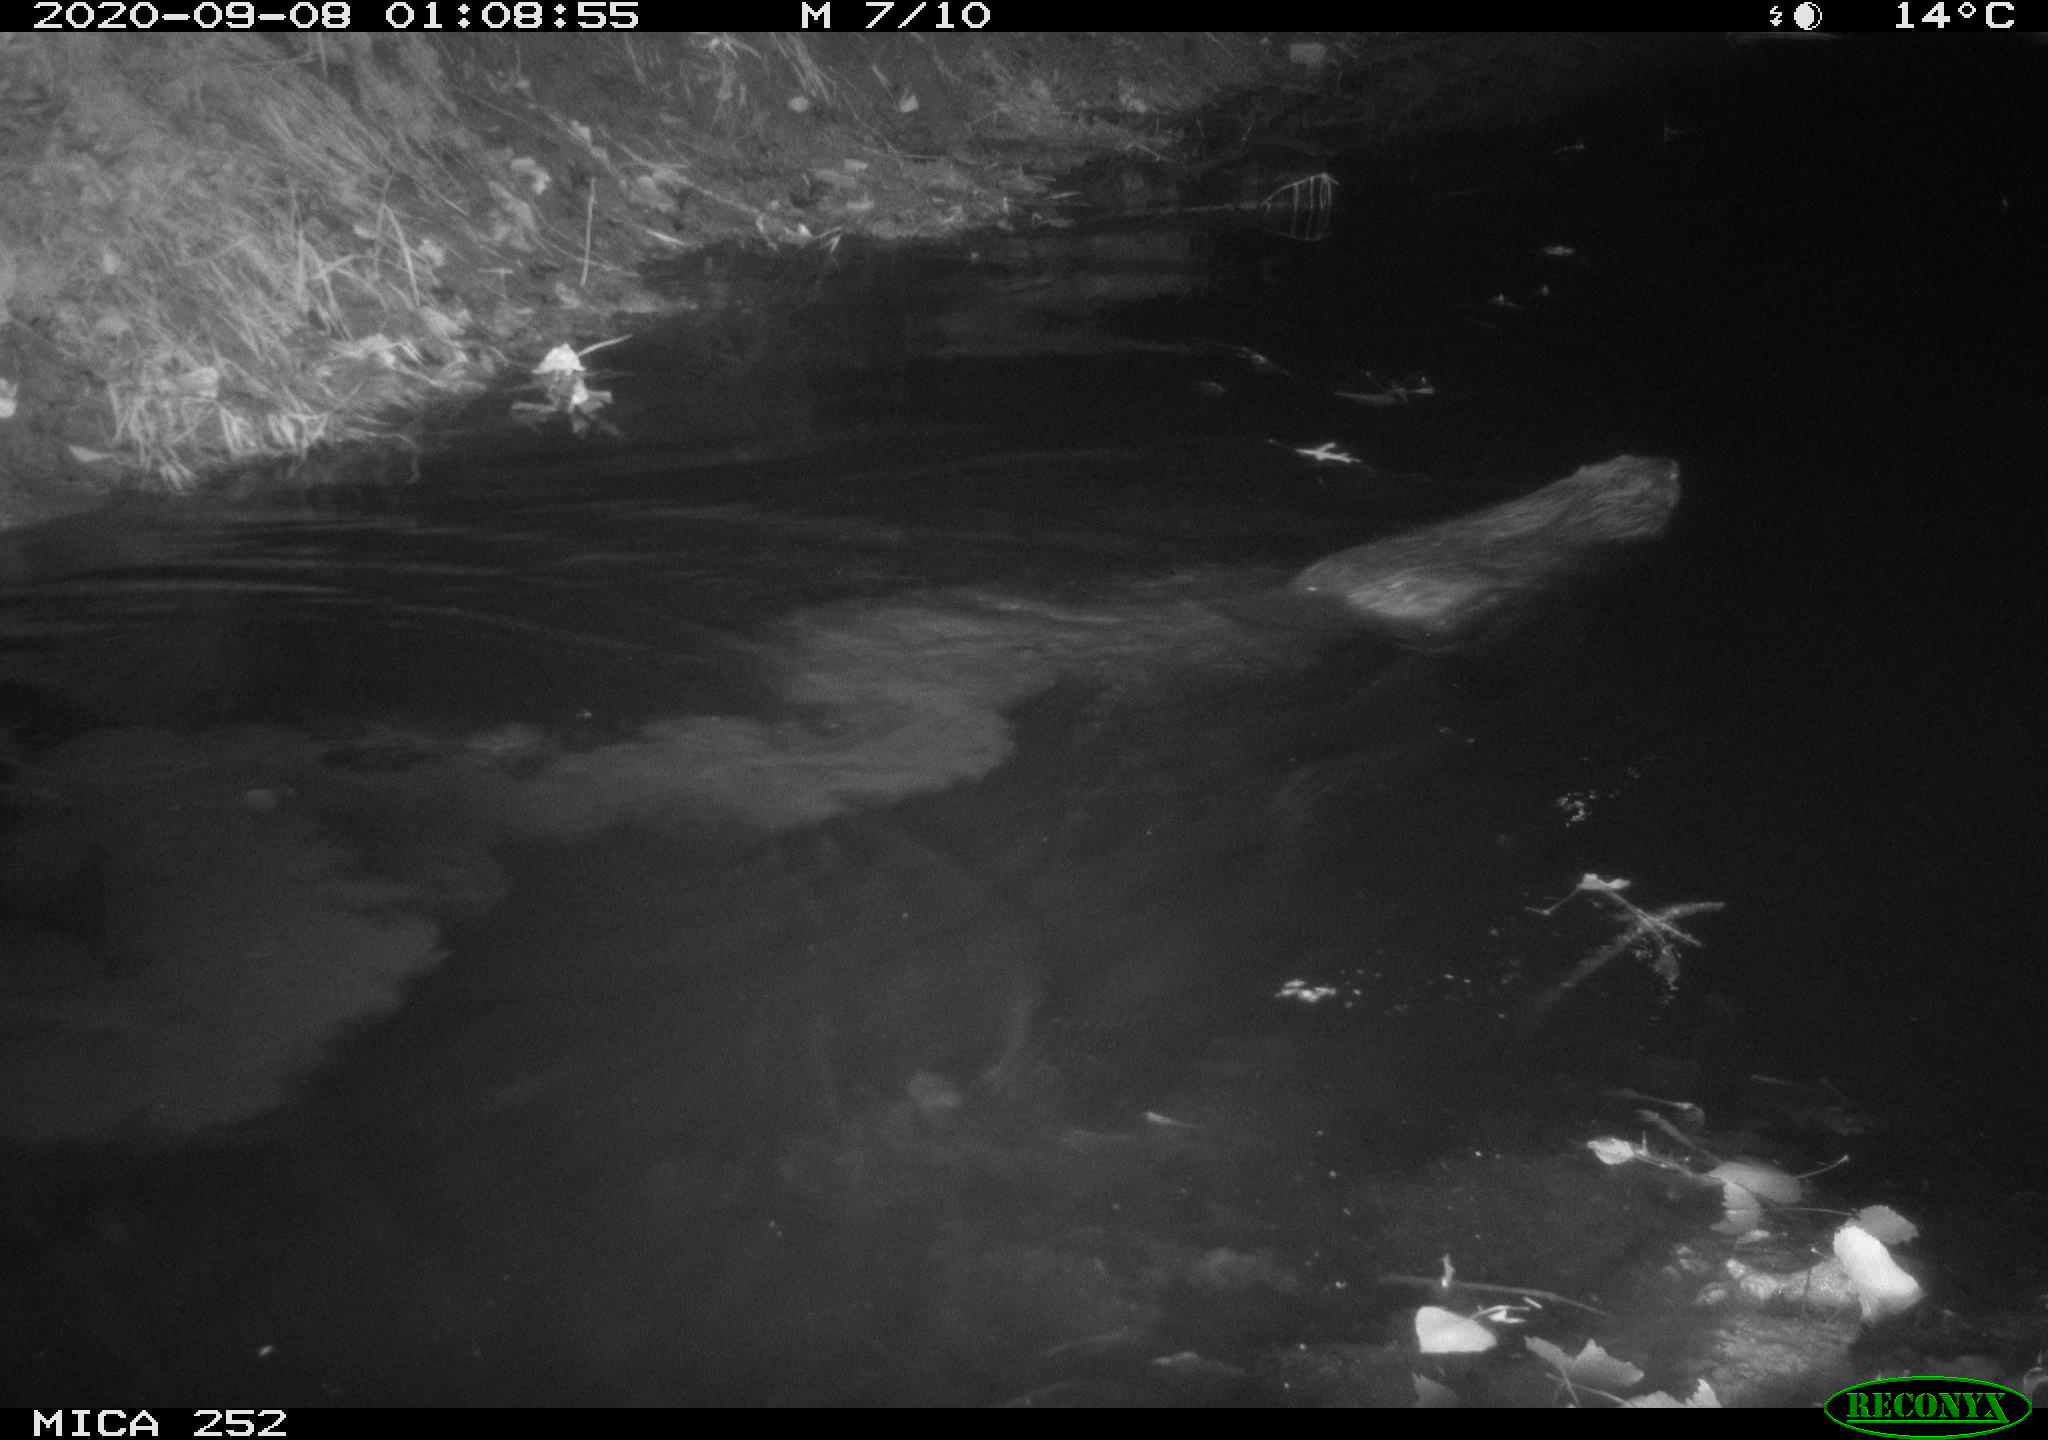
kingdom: Animalia
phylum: Chordata
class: Mammalia
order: Rodentia
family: Castoridae
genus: Castor
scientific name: Castor fiber
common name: Eurasian beaver
